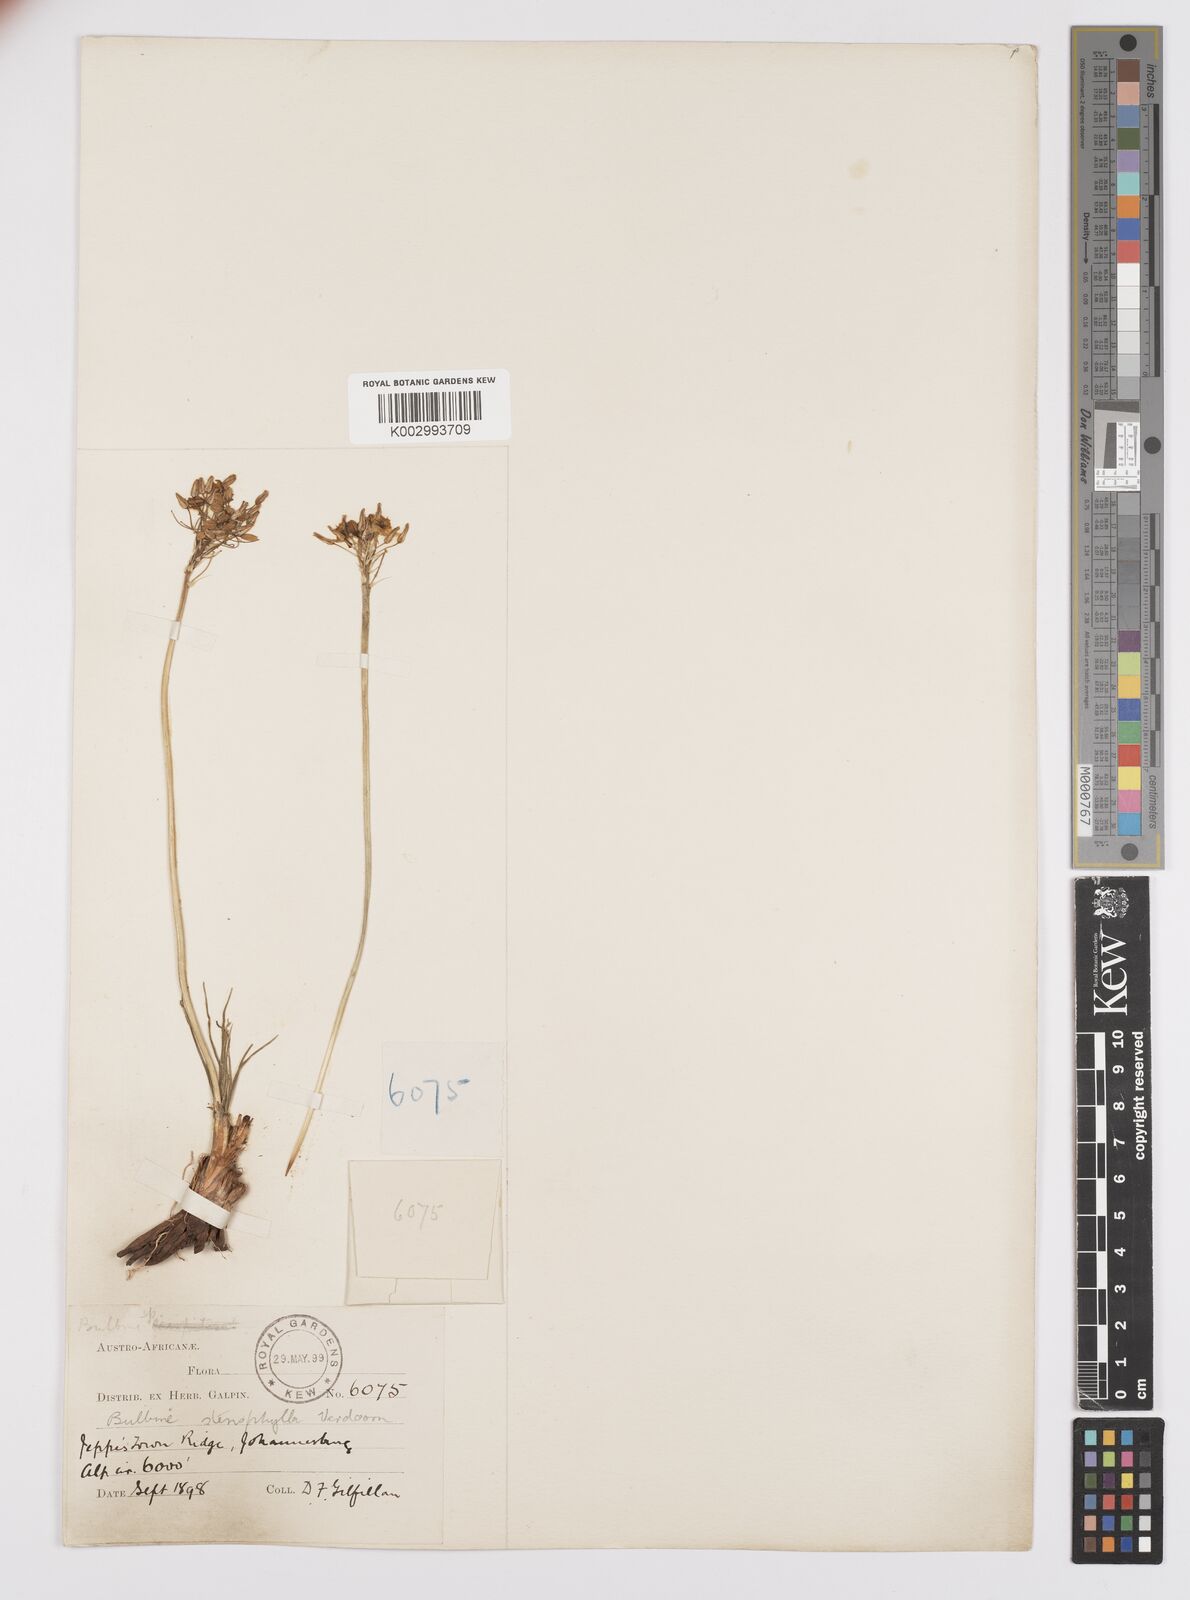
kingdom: Plantae
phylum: Tracheophyta
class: Liliopsida
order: Asparagales
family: Asphodelaceae
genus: Bulbine
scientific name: Bulbine capitata
